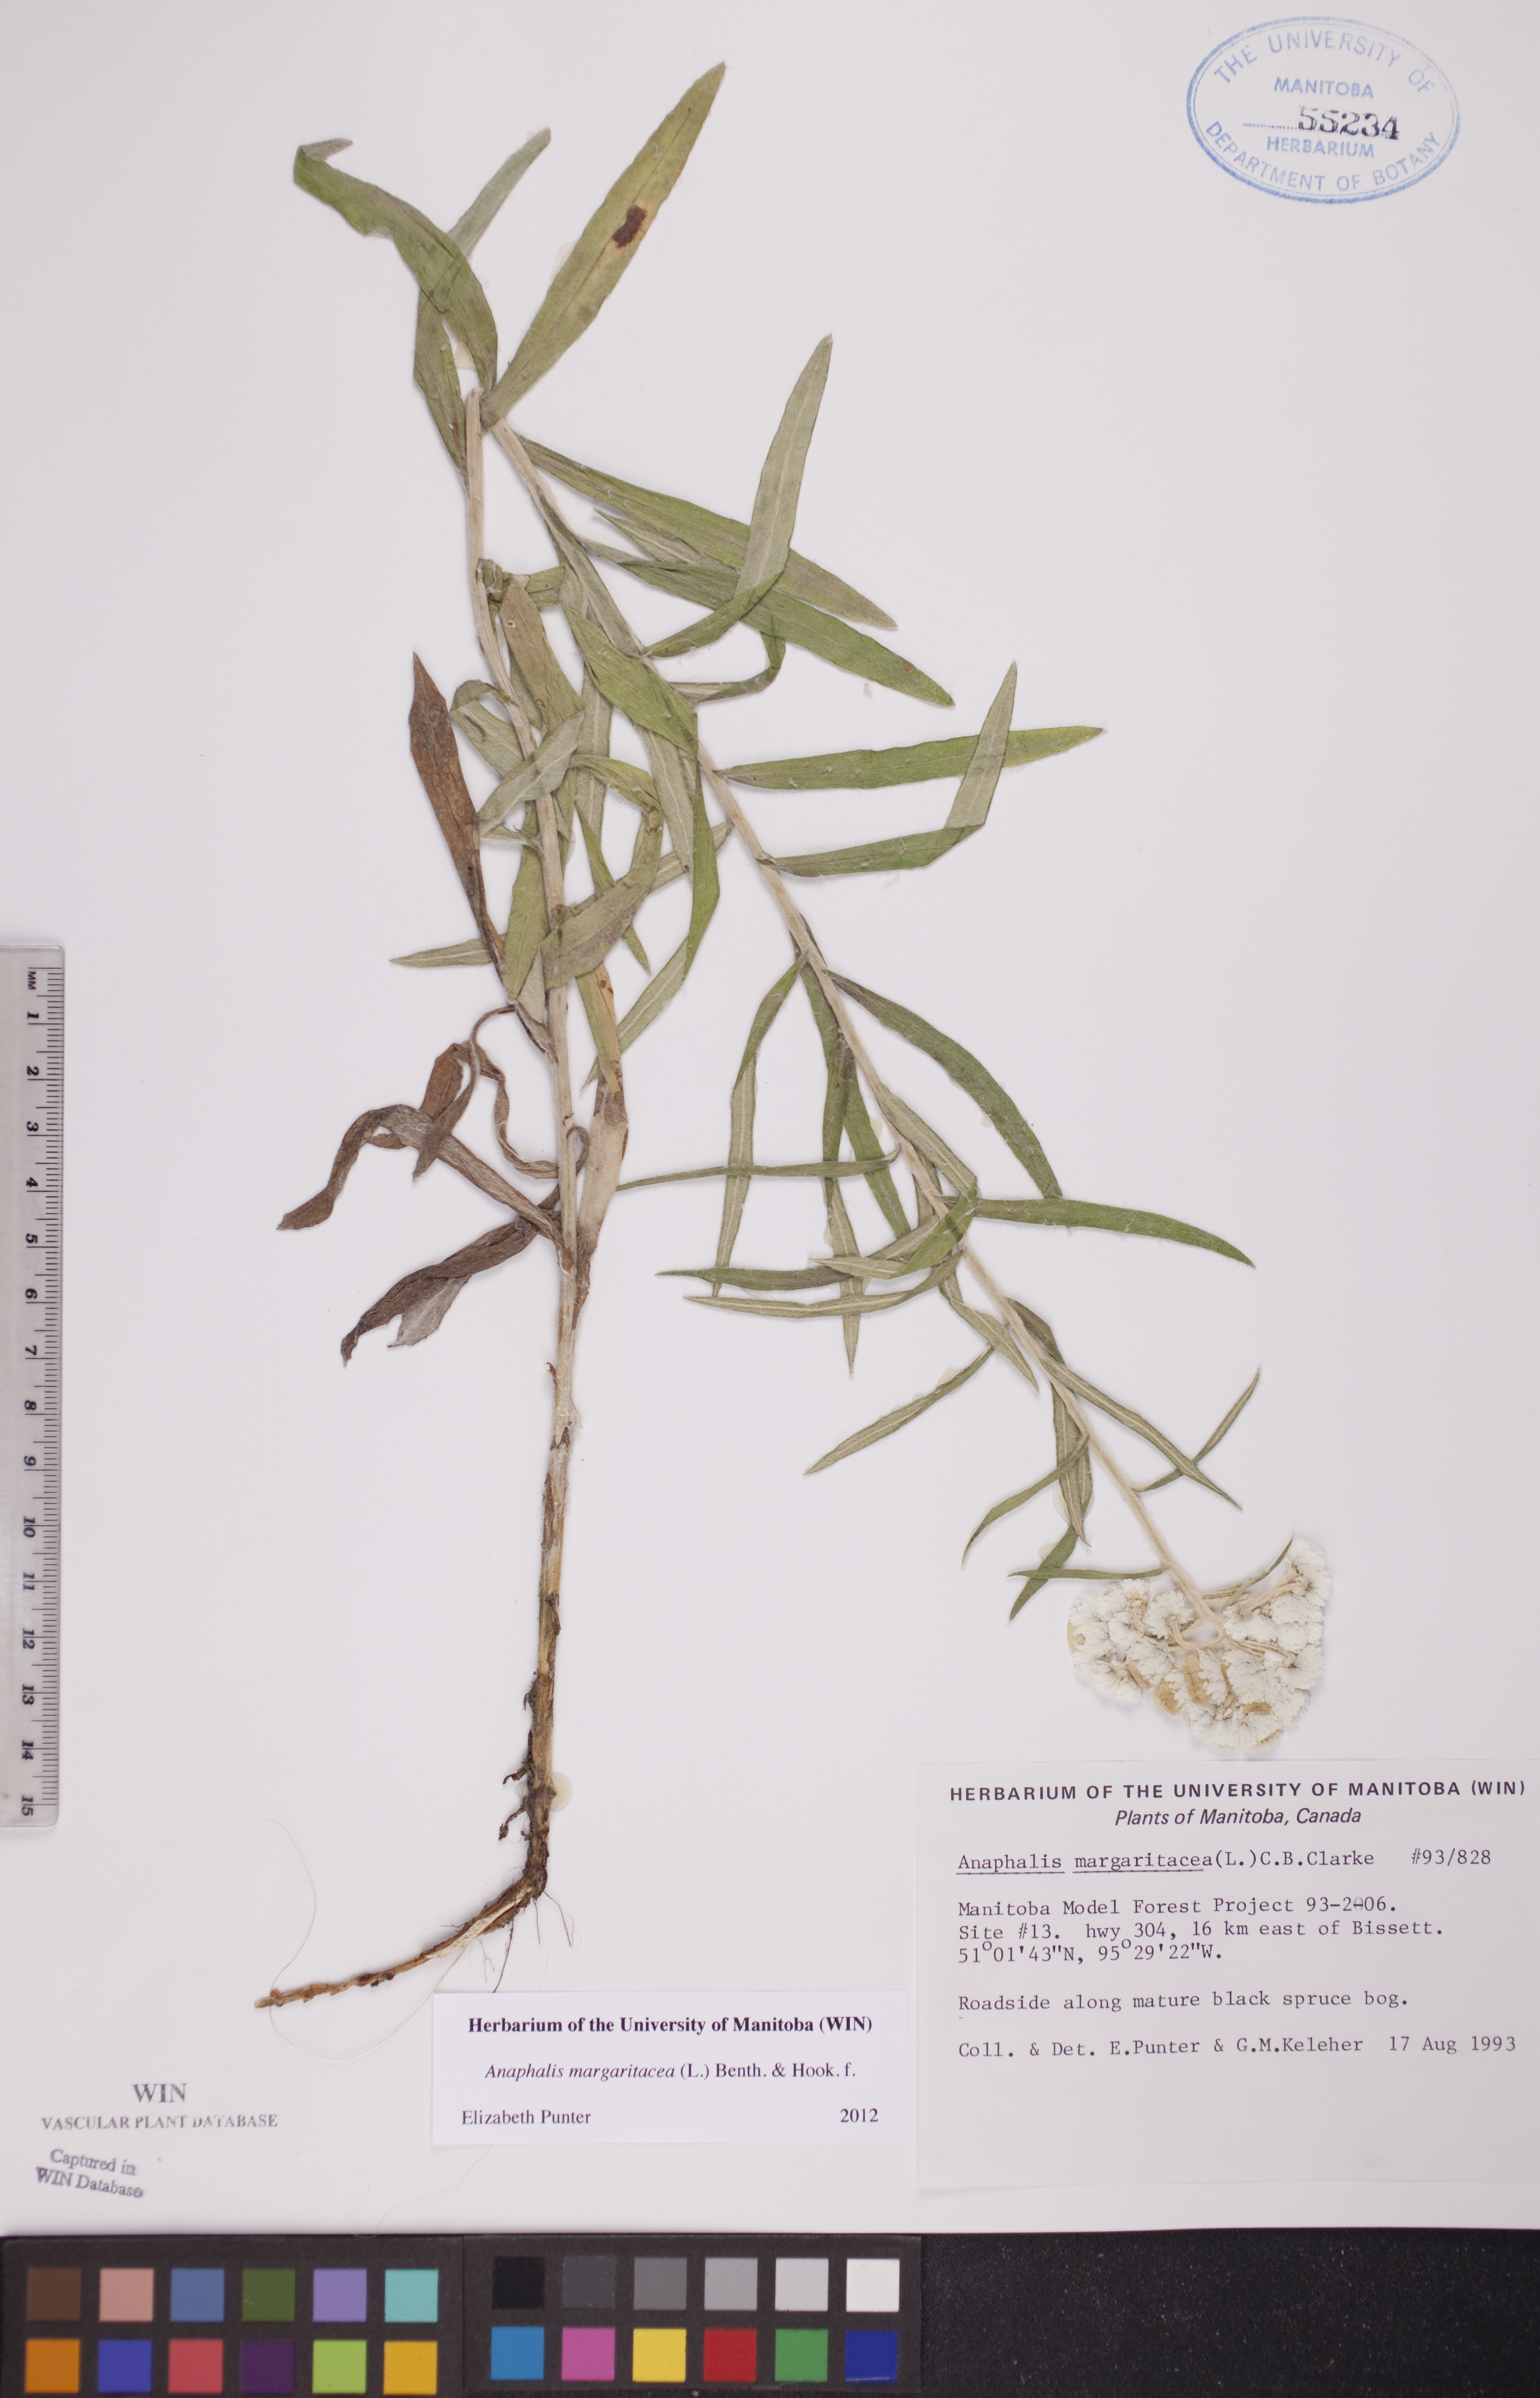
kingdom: Plantae
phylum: Tracheophyta
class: Magnoliopsida
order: Asterales
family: Asteraceae
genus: Anaphalis
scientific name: Anaphalis margaritacea
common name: Pearly everlasting
